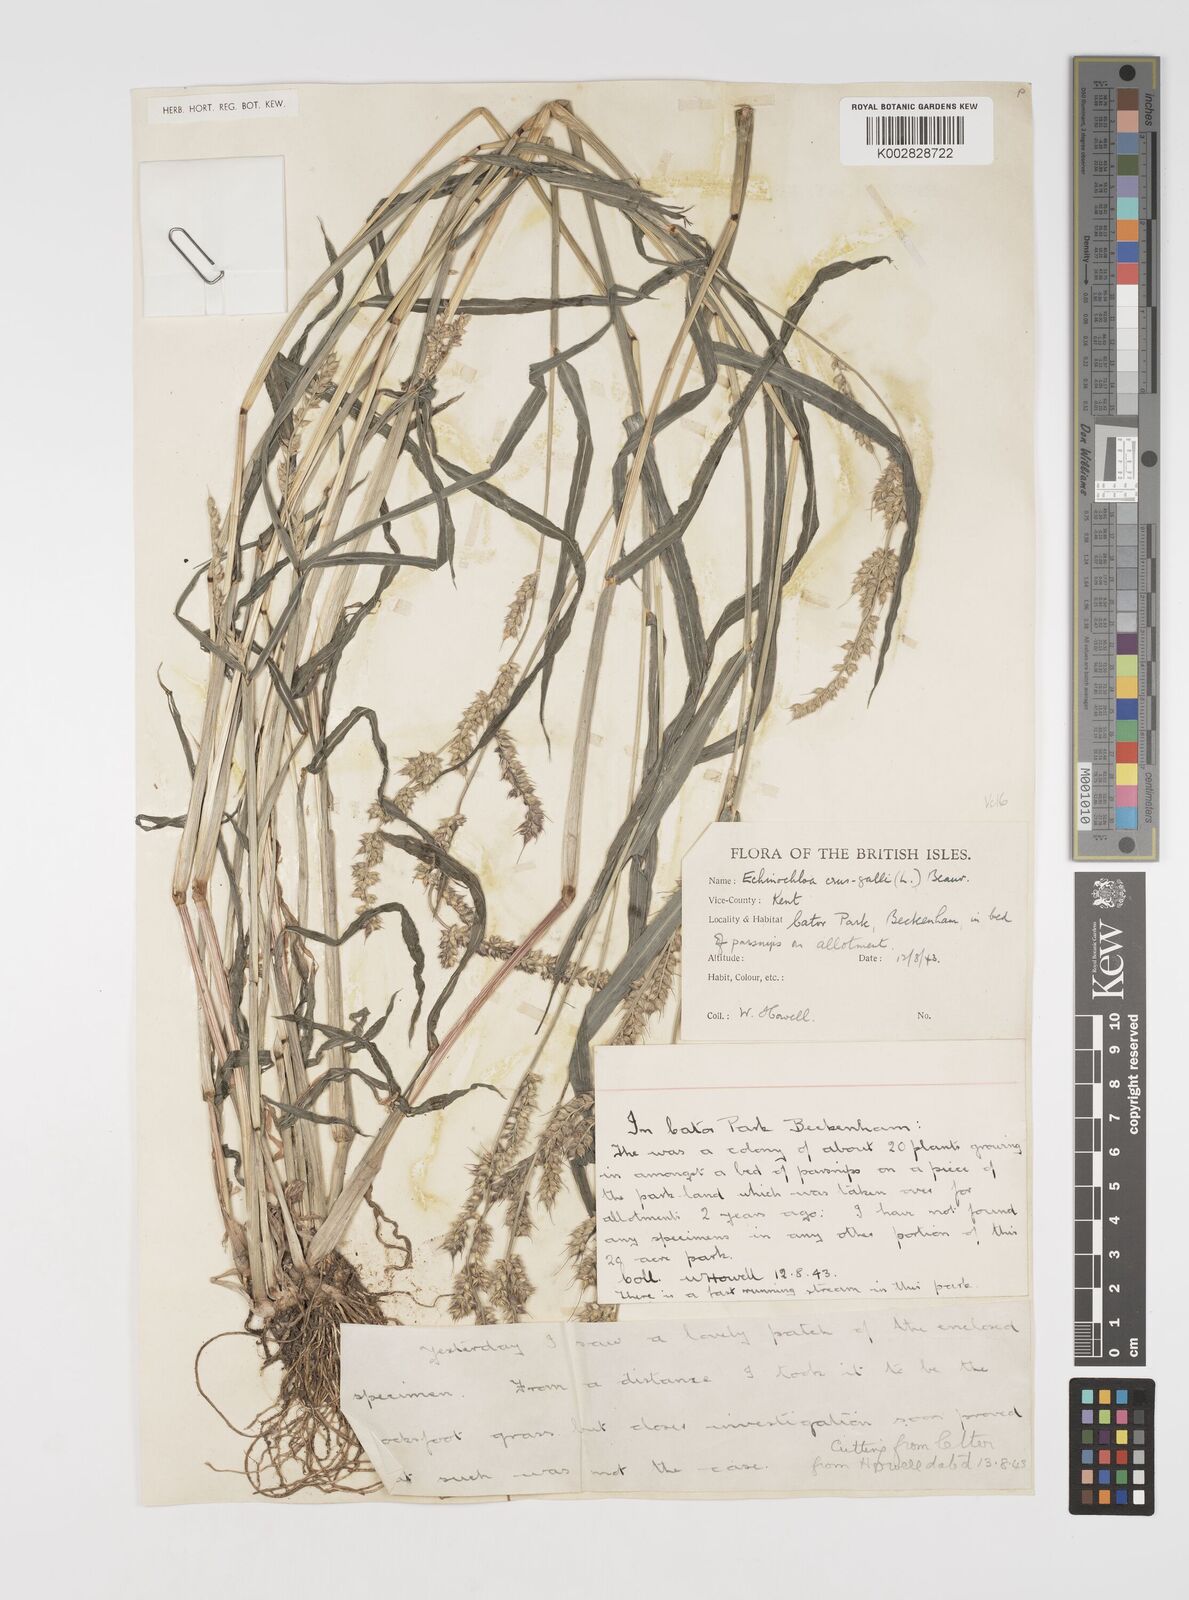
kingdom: Plantae
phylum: Tracheophyta
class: Liliopsida
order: Poales
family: Poaceae
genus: Echinochloa
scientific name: Echinochloa crus-galli
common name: Cockspur
